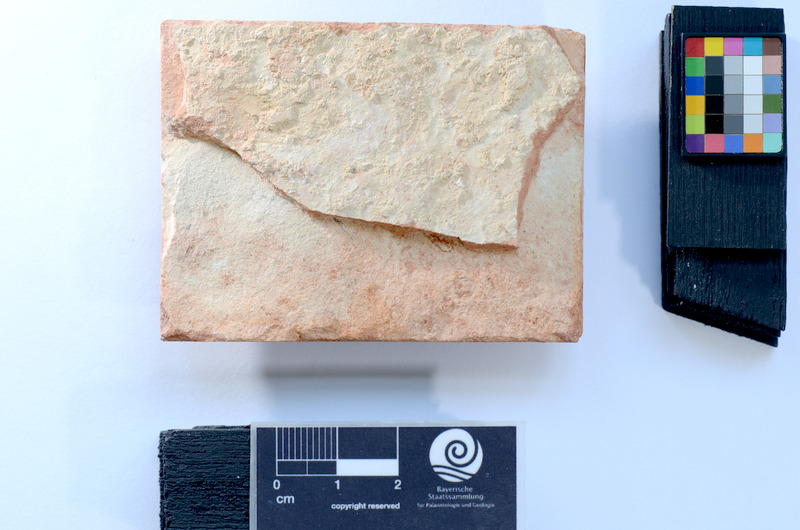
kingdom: Animalia
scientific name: Animalia
